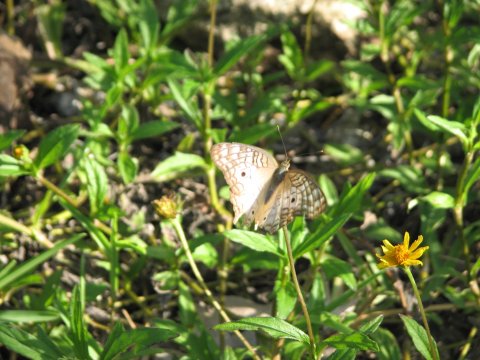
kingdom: Animalia
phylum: Arthropoda
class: Insecta
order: Lepidoptera
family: Nymphalidae
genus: Anartia
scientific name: Anartia jatrophae
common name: White Peacock
